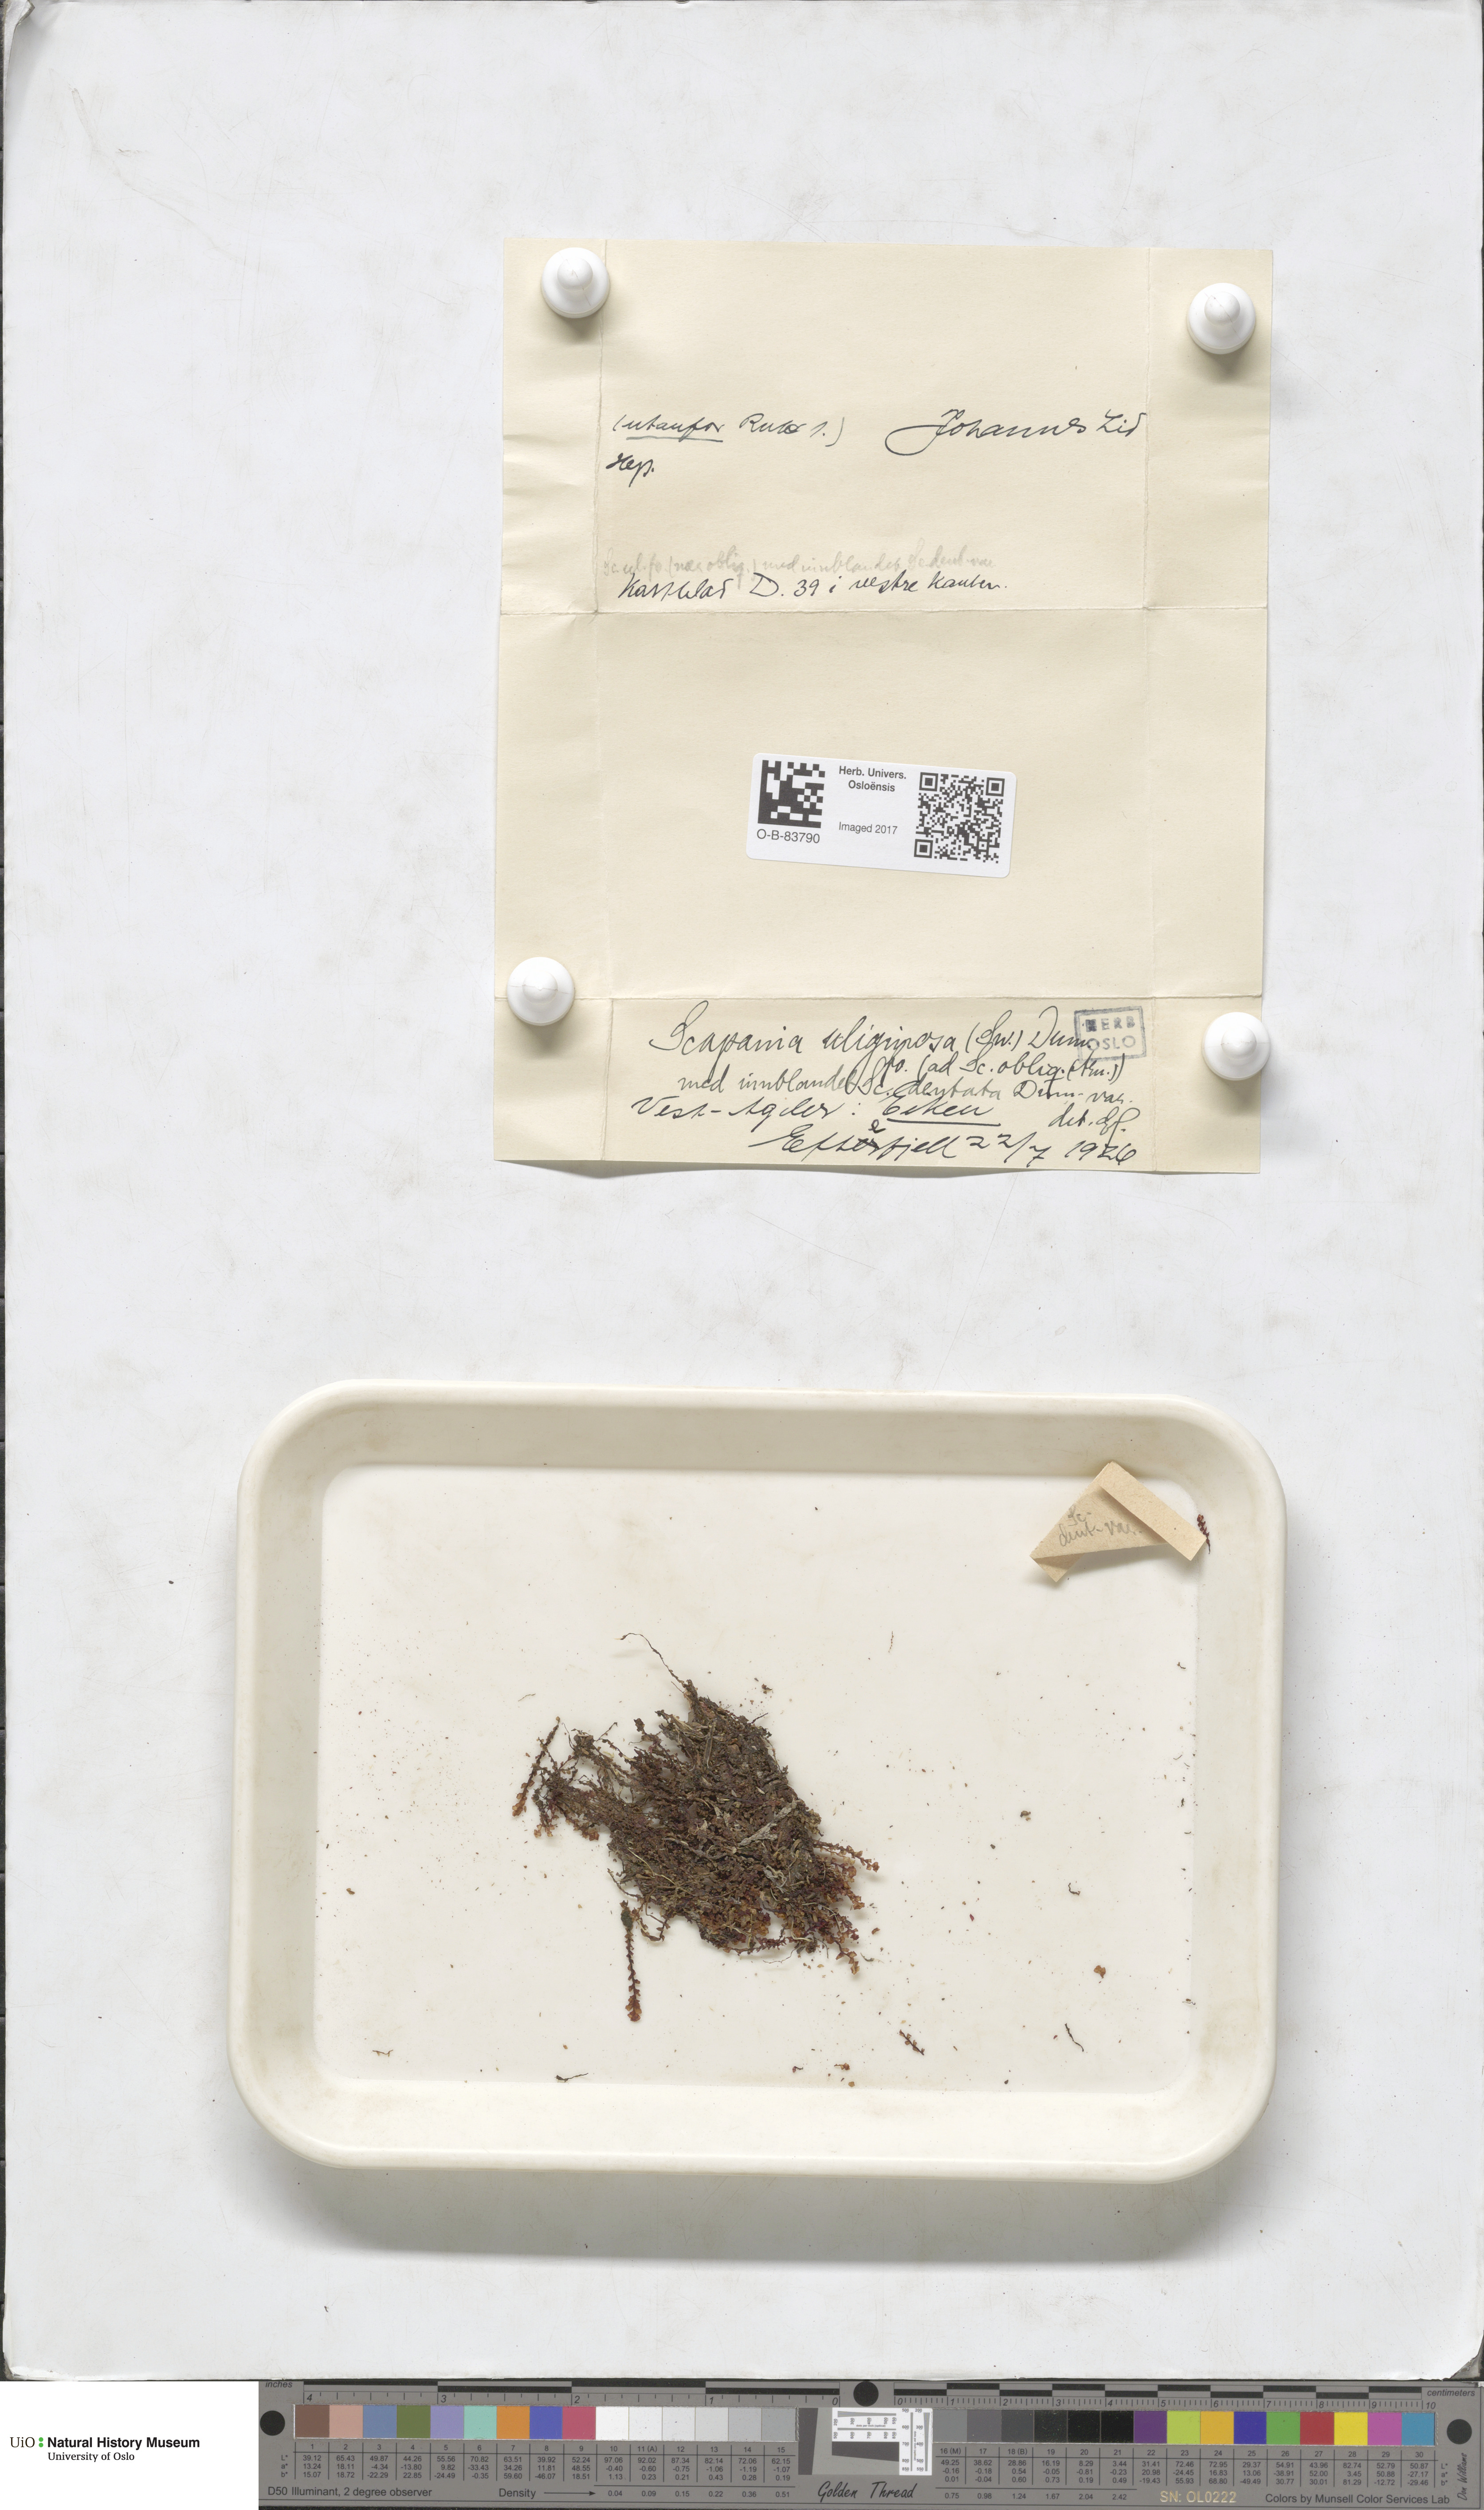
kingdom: Plantae
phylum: Marchantiophyta
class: Jungermanniopsida
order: Jungermanniales
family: Scapaniaceae
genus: Scapania
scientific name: Scapania uliginosa
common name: Marsh earwort
